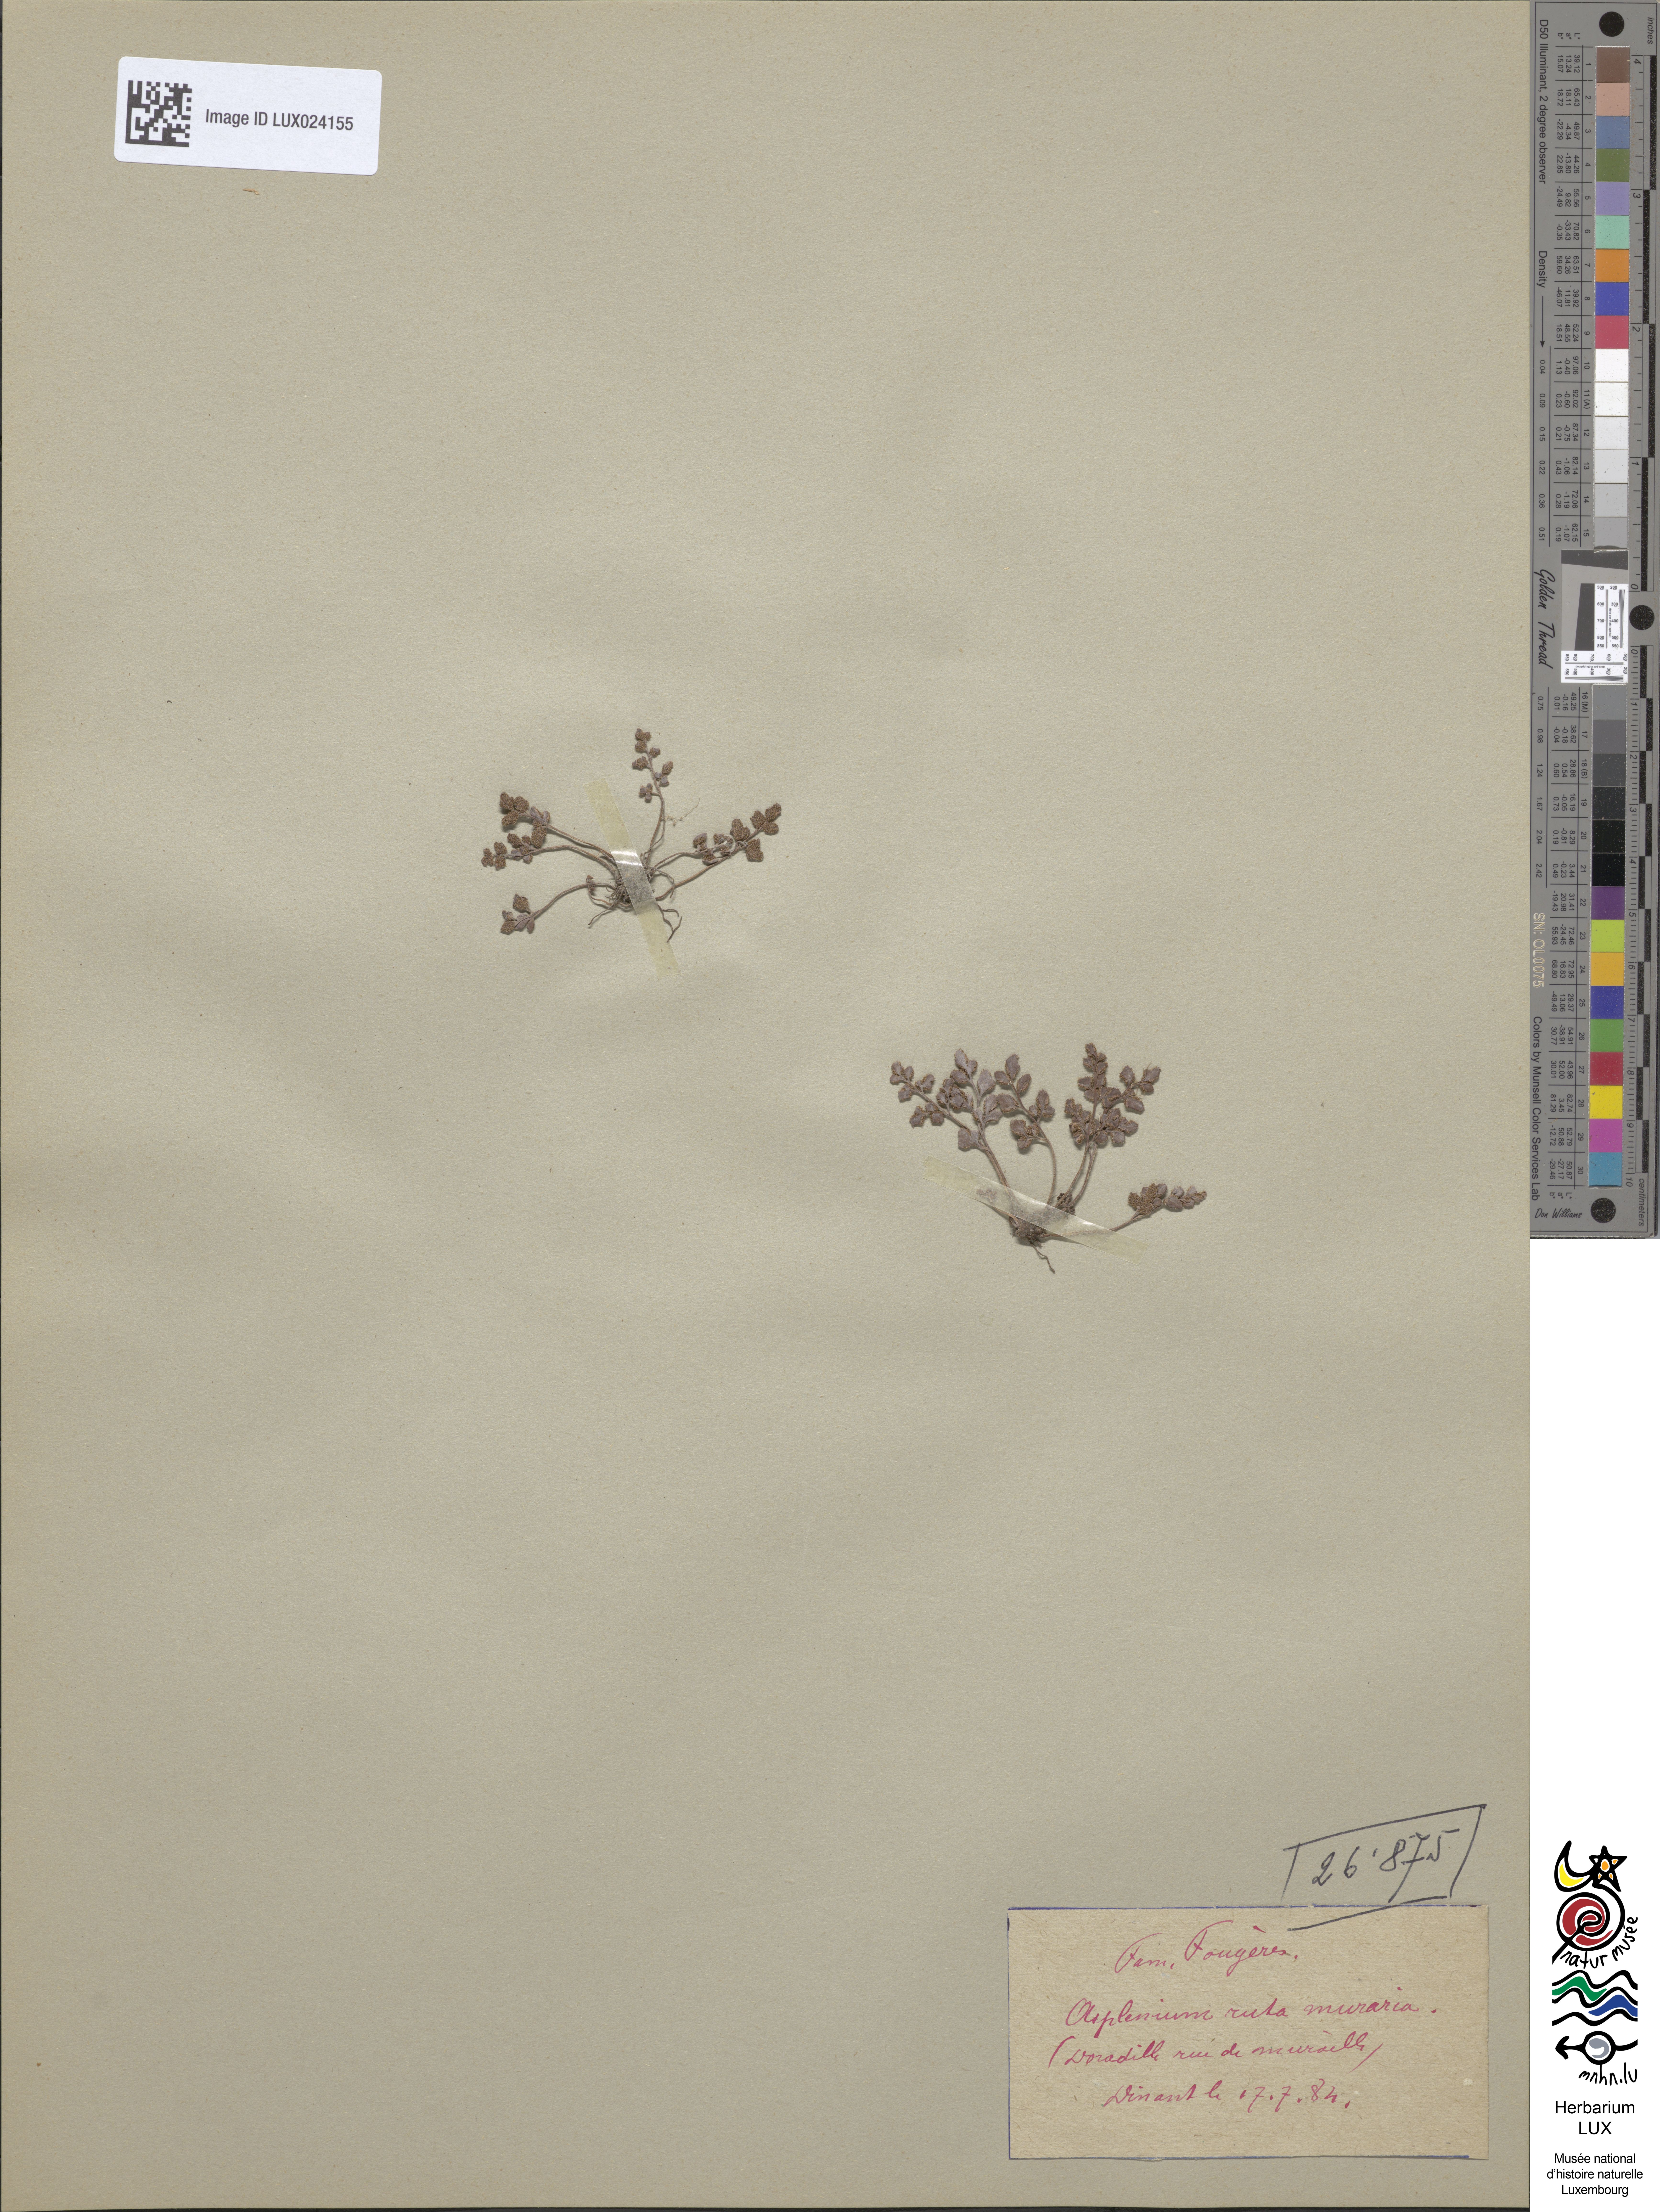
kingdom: Plantae
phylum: Tracheophyta
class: Polypodiopsida
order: Polypodiales
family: Aspleniaceae
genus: Asplenium
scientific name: Asplenium ruta-muraria
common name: Wall-rue
